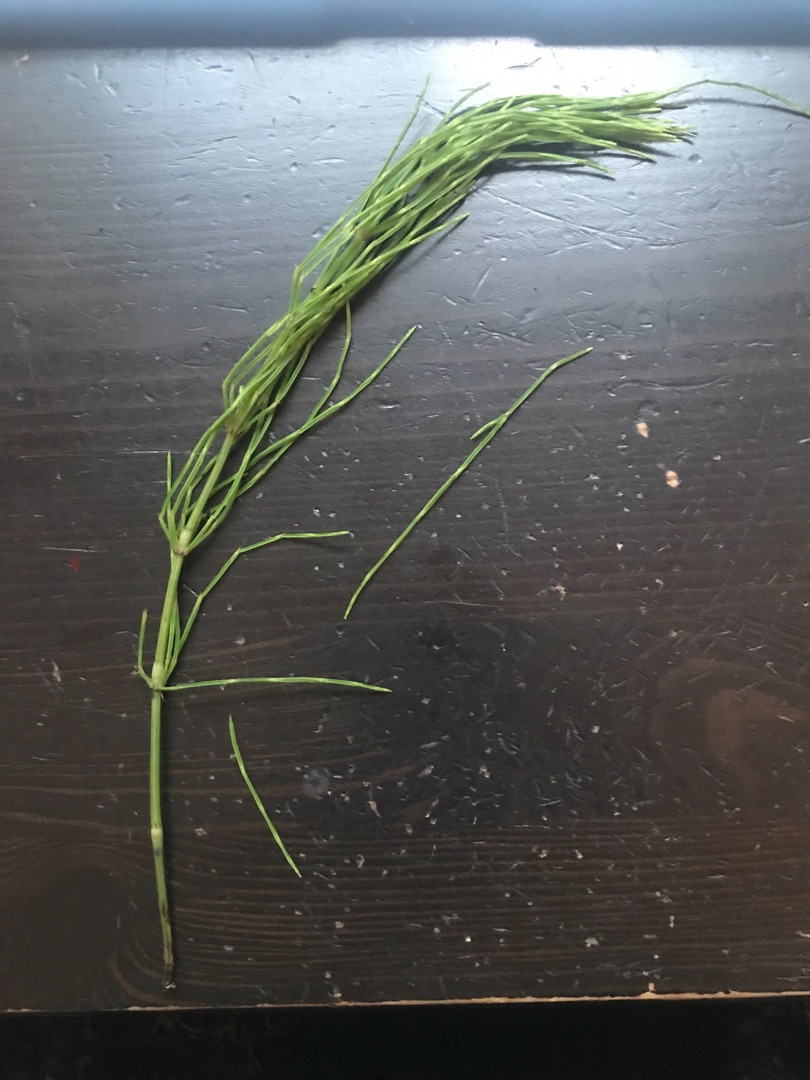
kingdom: Plantae
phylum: Tracheophyta
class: Polypodiopsida
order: Equisetales
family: Equisetaceae
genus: Equisetum
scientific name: Equisetum arvense
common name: Ager-padderok
